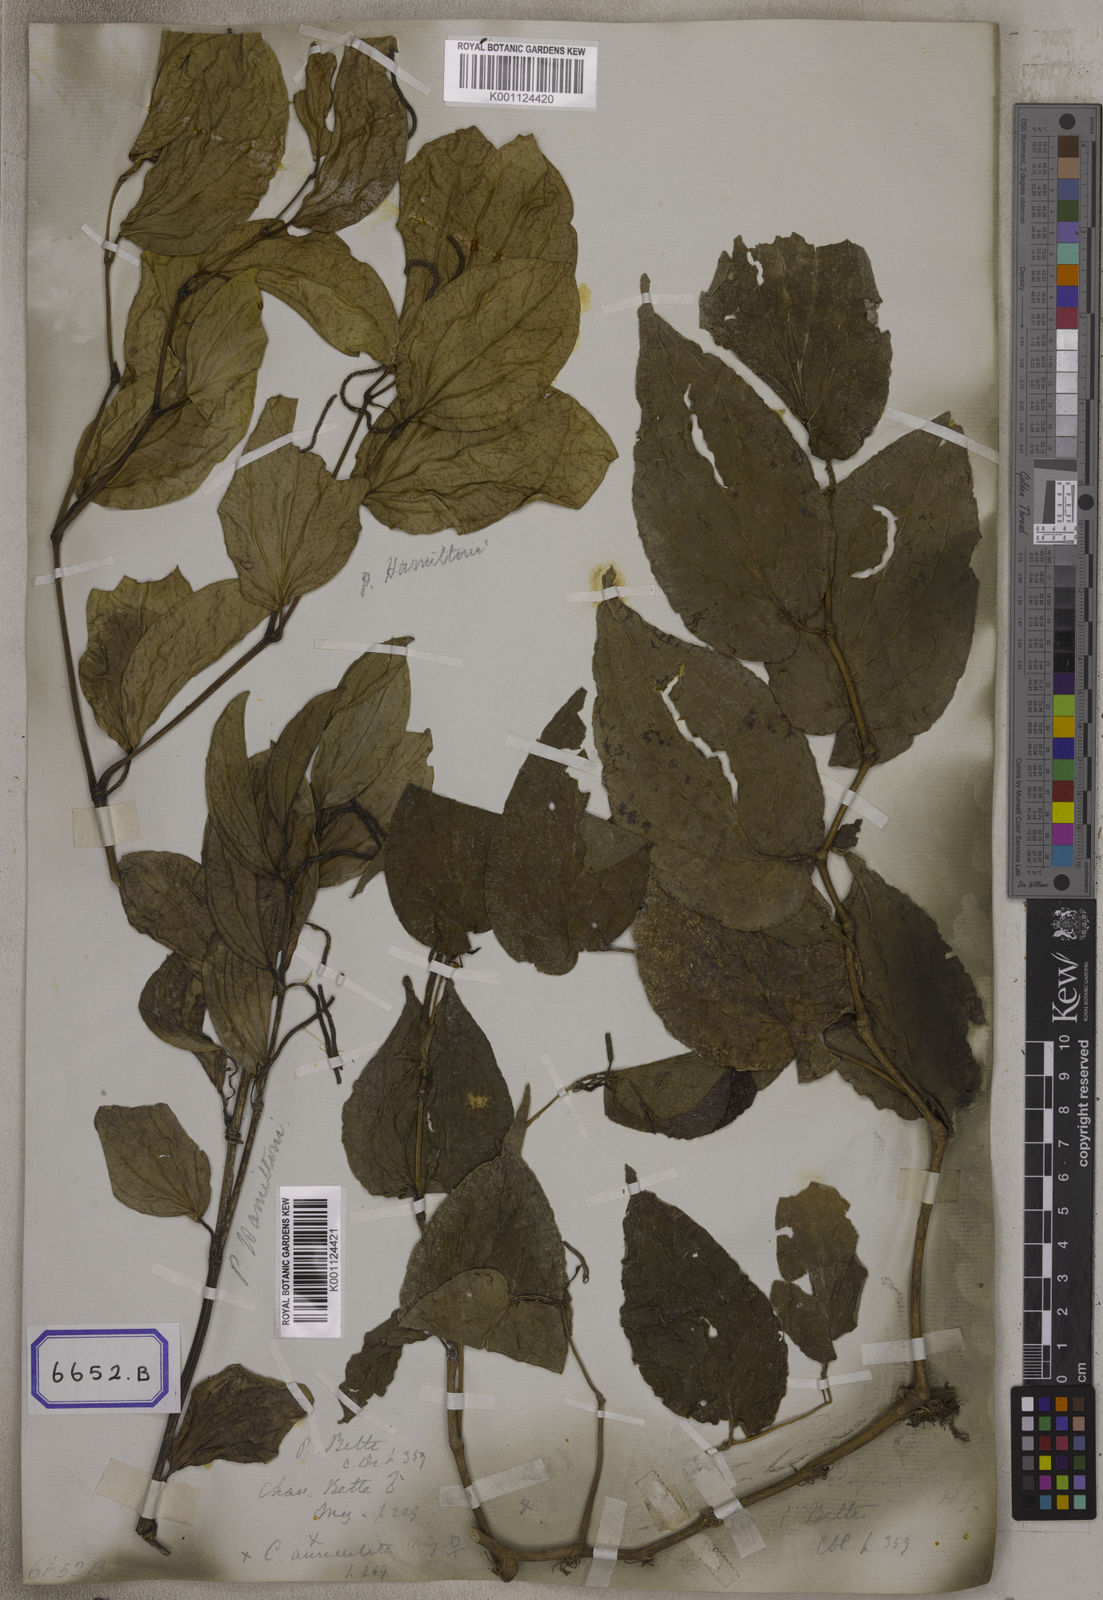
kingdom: Plantae
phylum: Tracheophyta
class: Magnoliopsida
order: Piperales
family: Piperaceae
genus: Piper
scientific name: Piper betle
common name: Betel pepper
